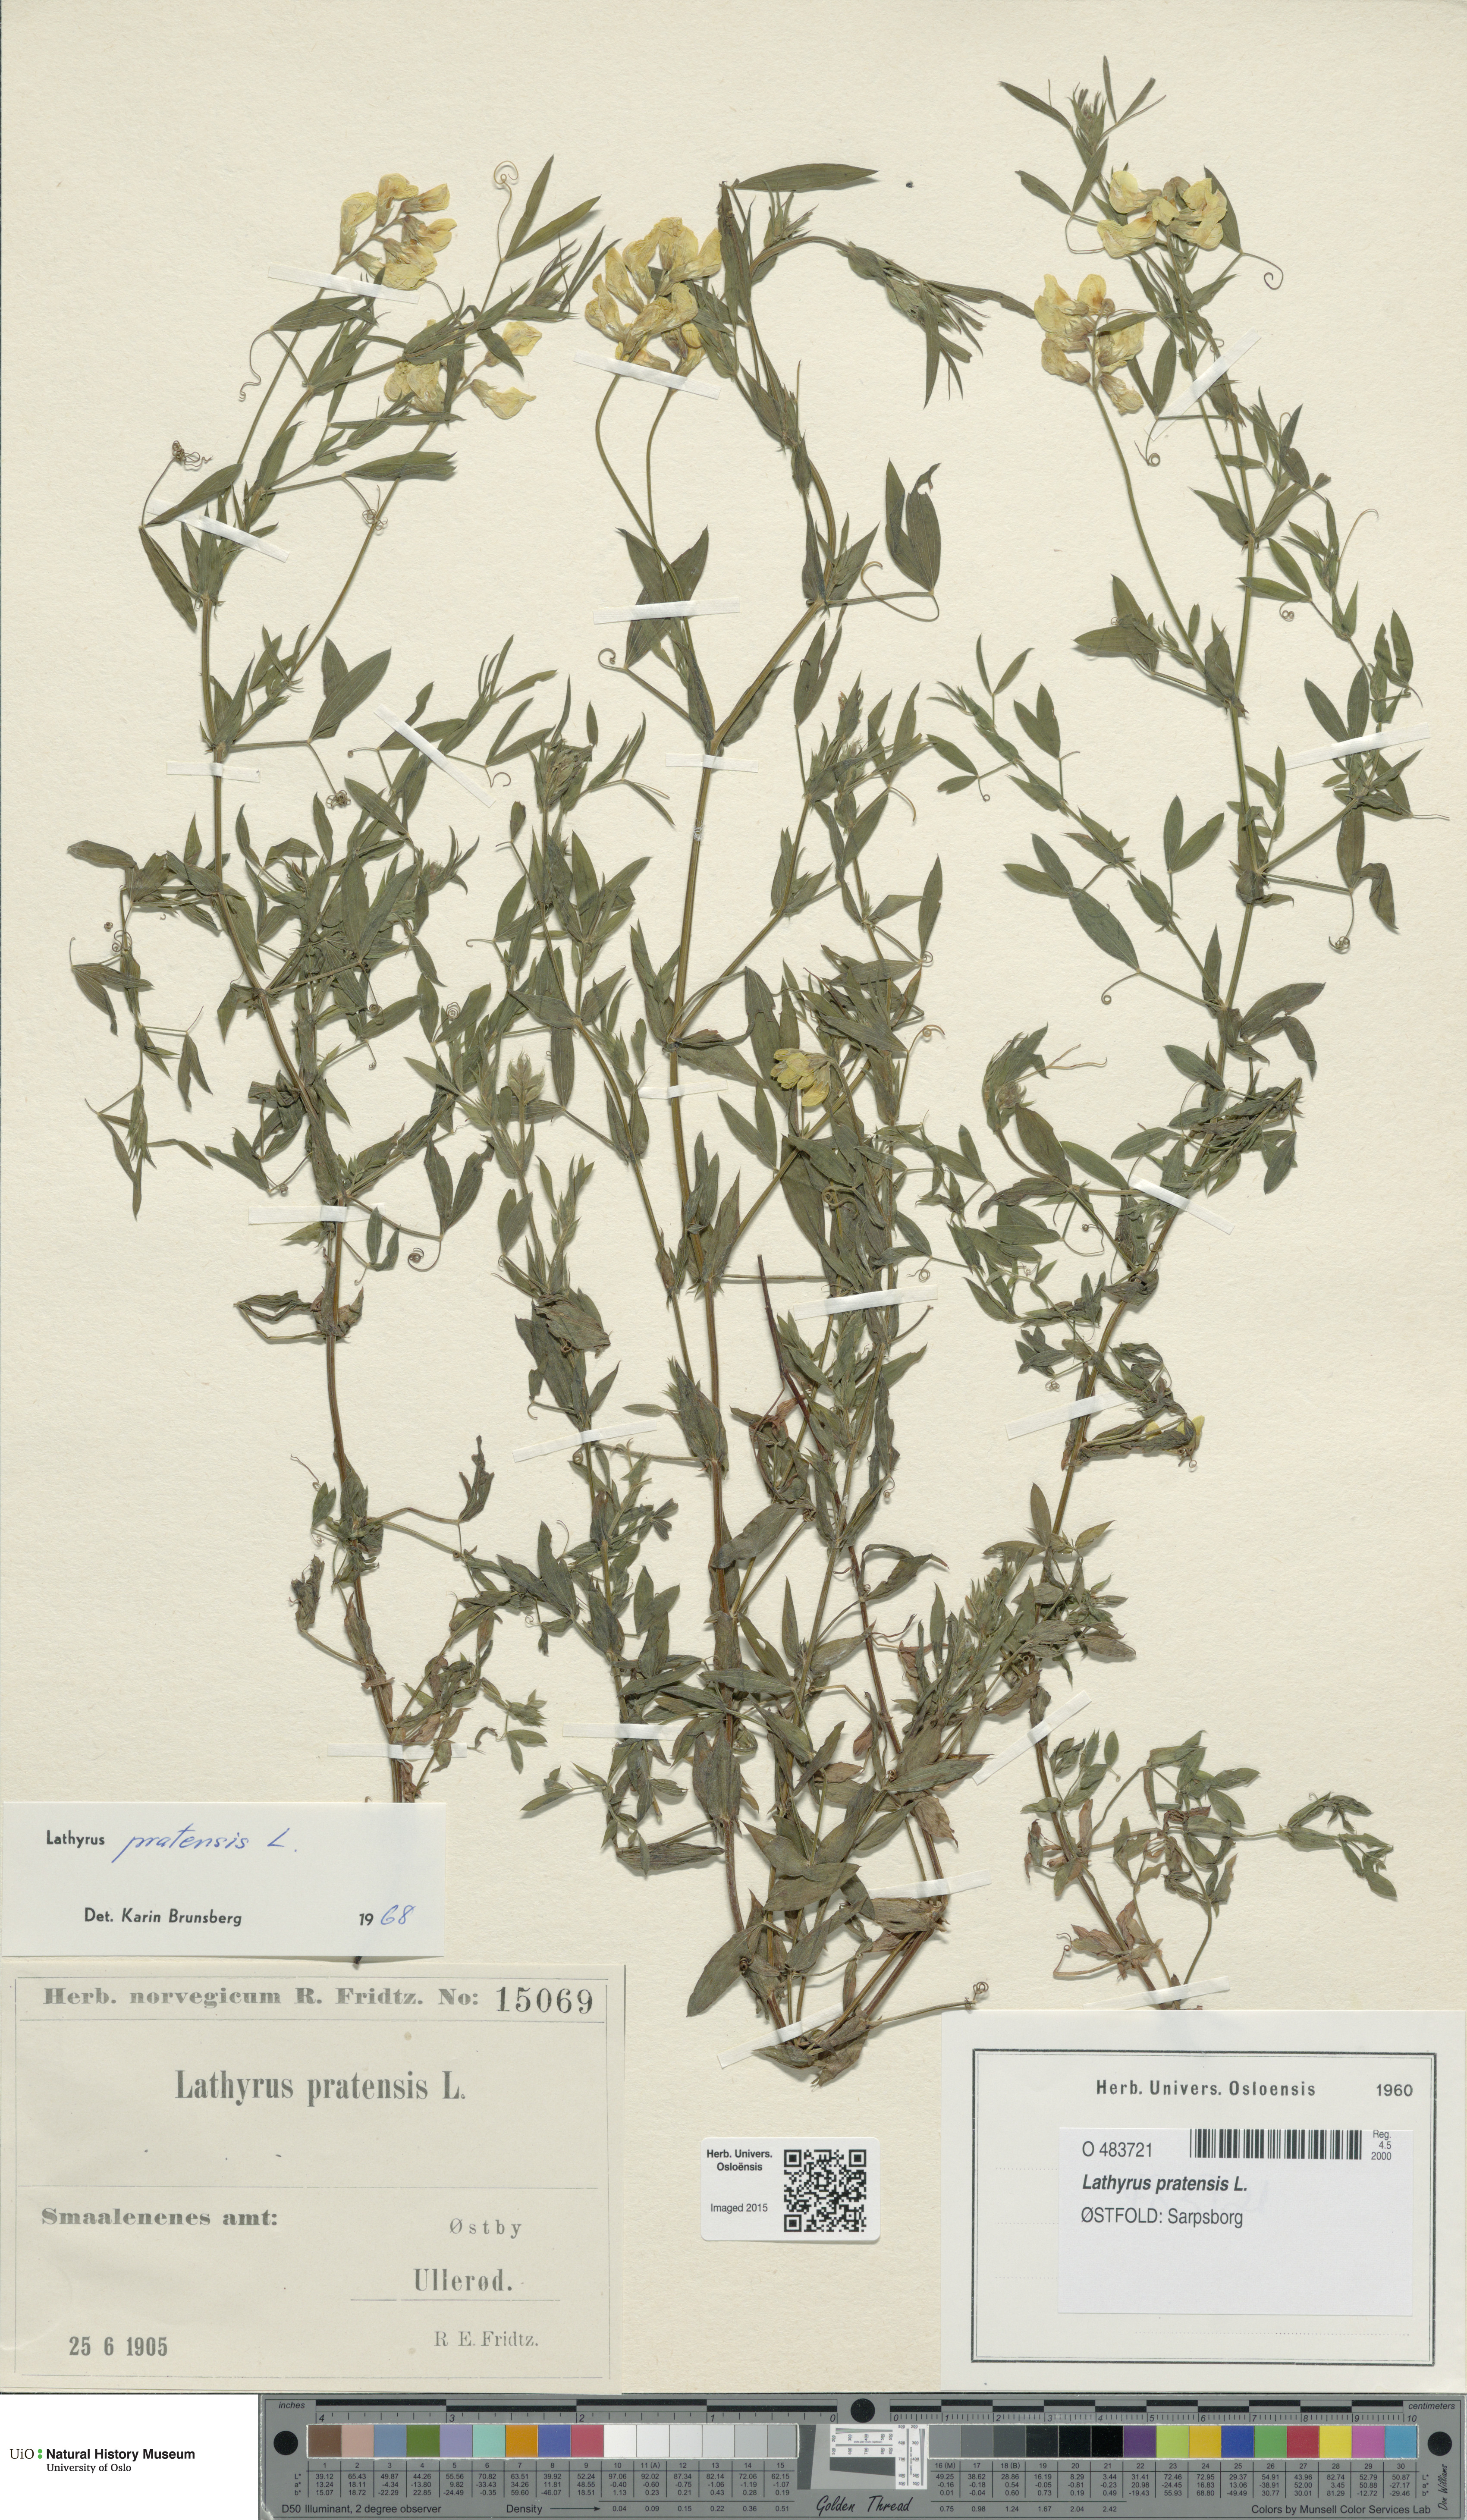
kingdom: Plantae
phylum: Tracheophyta
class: Magnoliopsida
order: Fabales
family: Fabaceae
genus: Lathyrus
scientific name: Lathyrus pratensis
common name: Meadow vetchling
